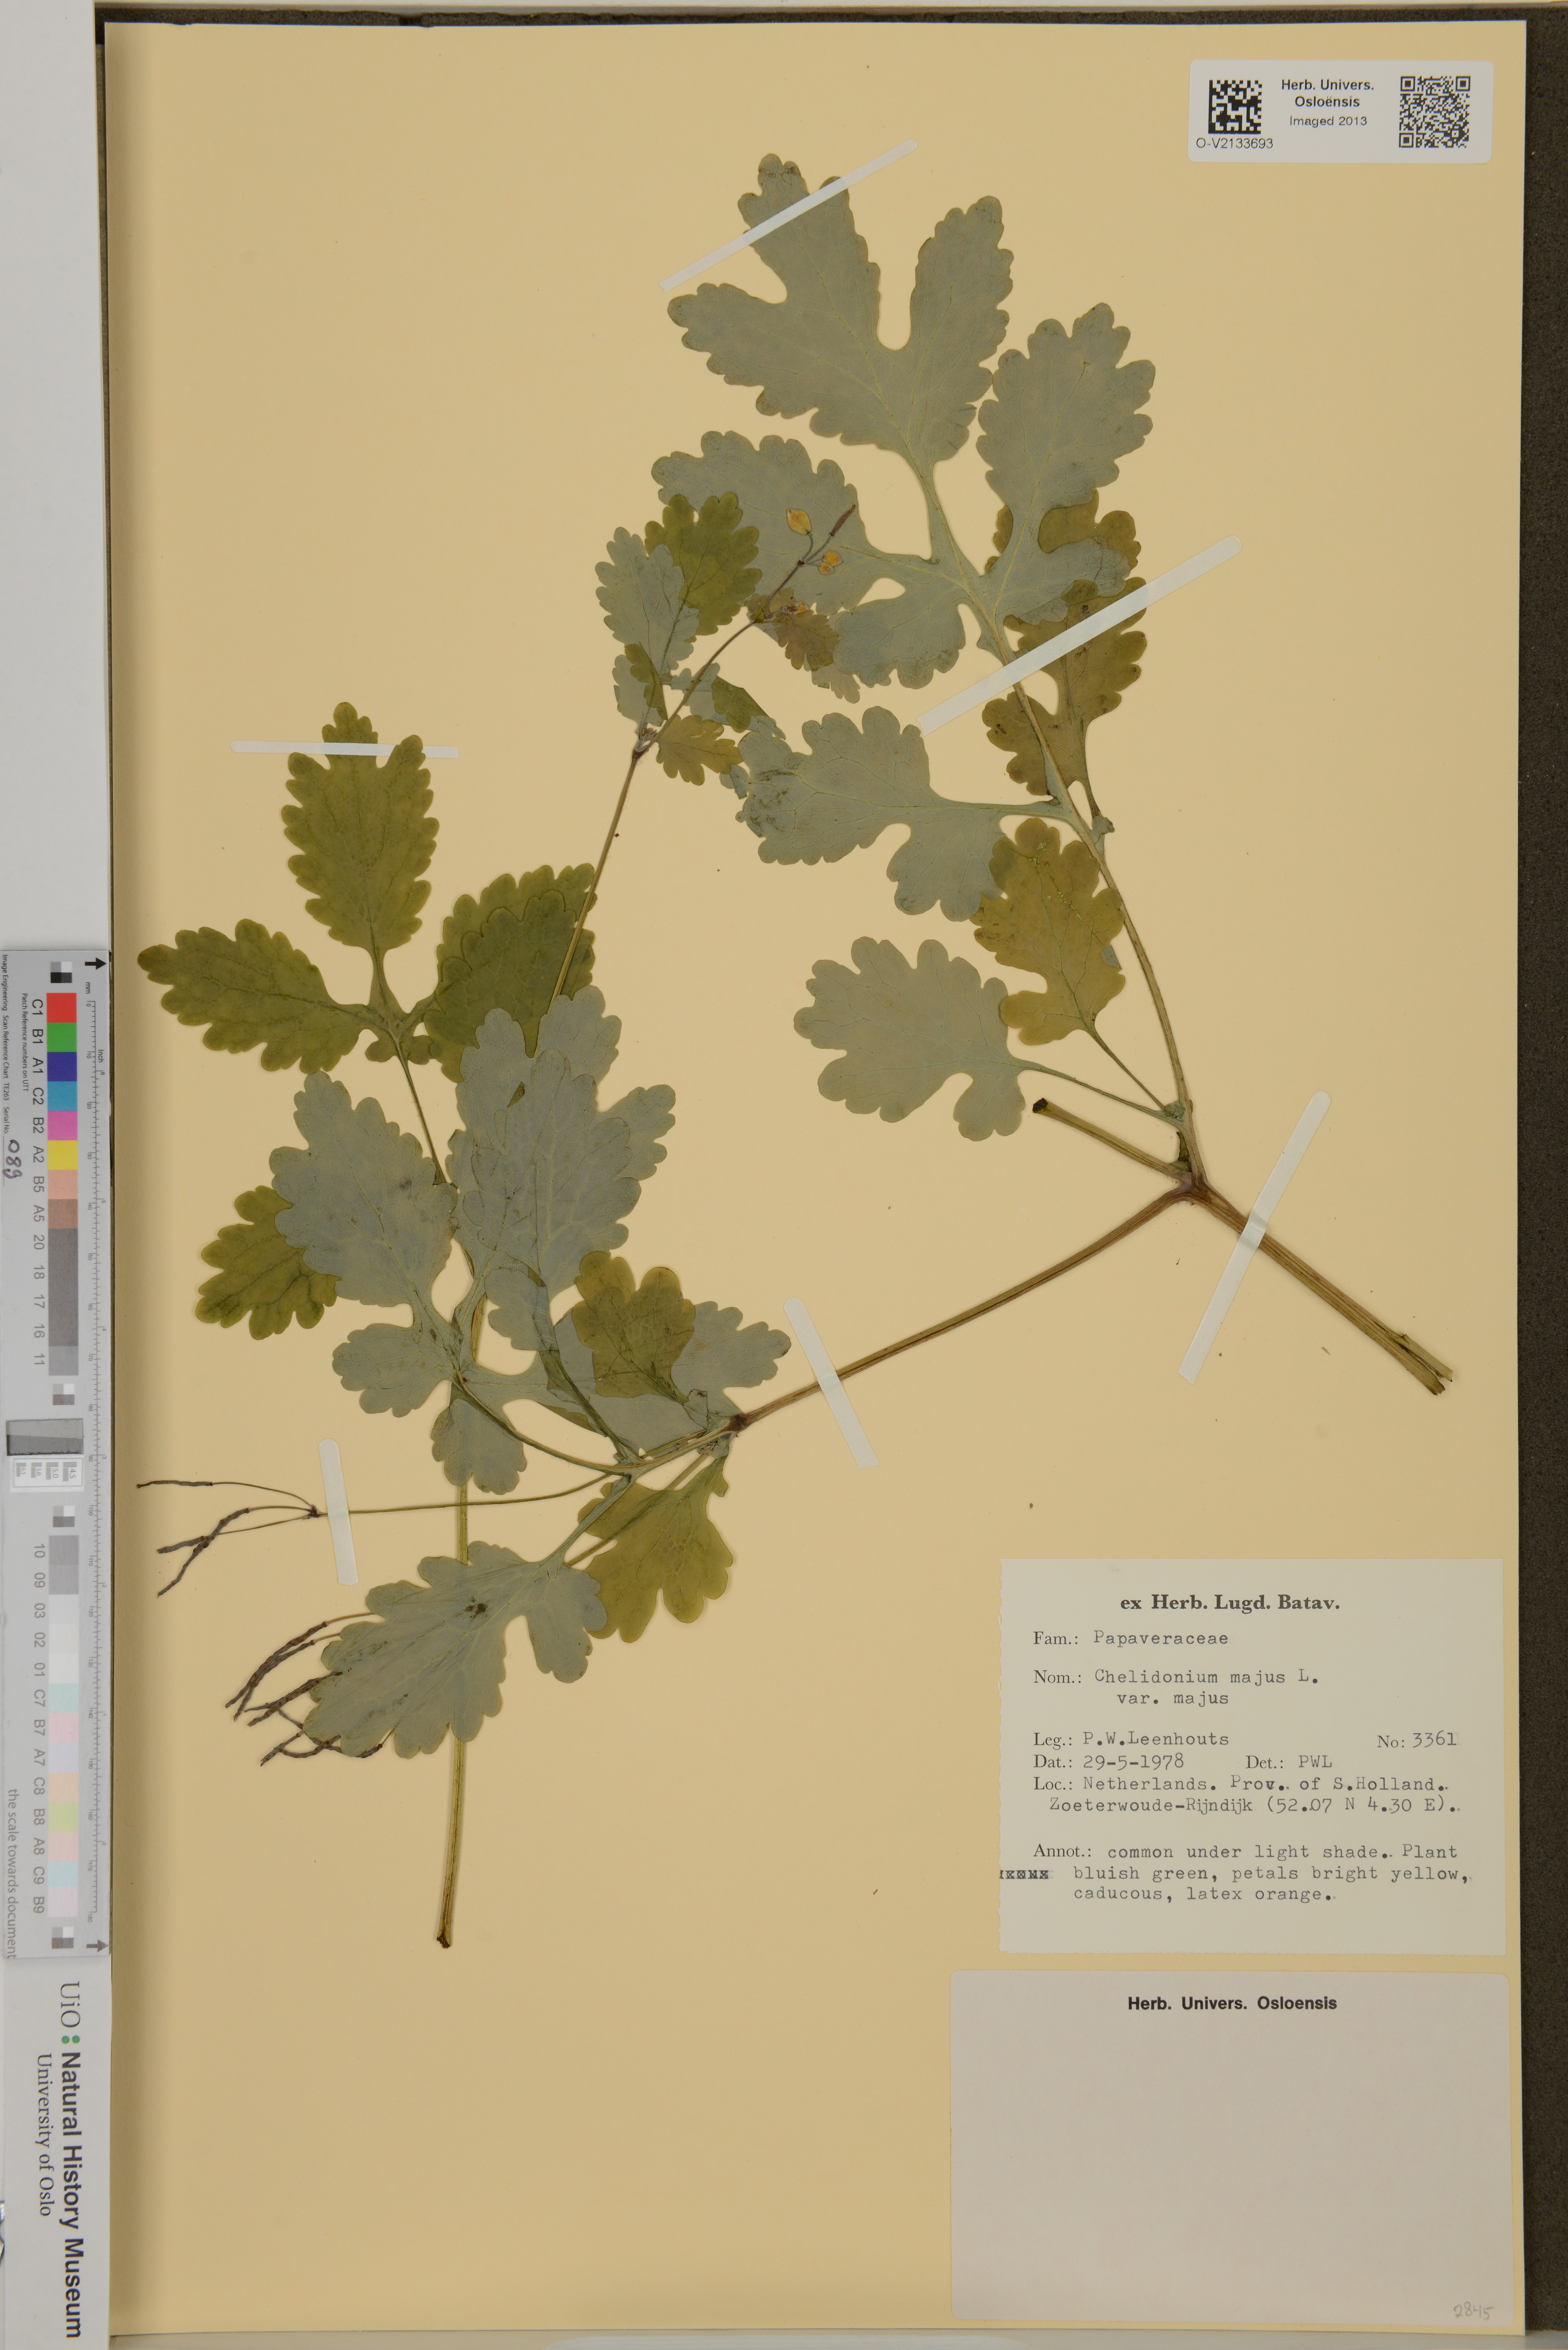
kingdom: Plantae
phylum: Tracheophyta
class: Magnoliopsida
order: Ranunculales
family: Papaveraceae
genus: Chelidonium
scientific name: Chelidonium majus
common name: Greater celandine
